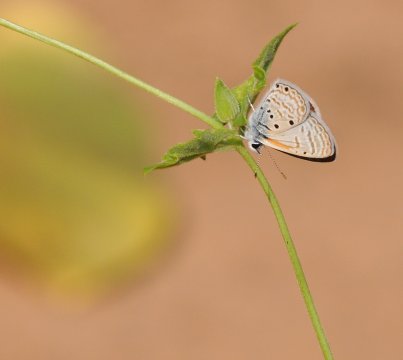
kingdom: Animalia
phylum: Arthropoda
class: Insecta
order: Lepidoptera
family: Lycaenidae
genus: Azanus
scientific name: Azanus ubaldus
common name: Bright Babul Blue
